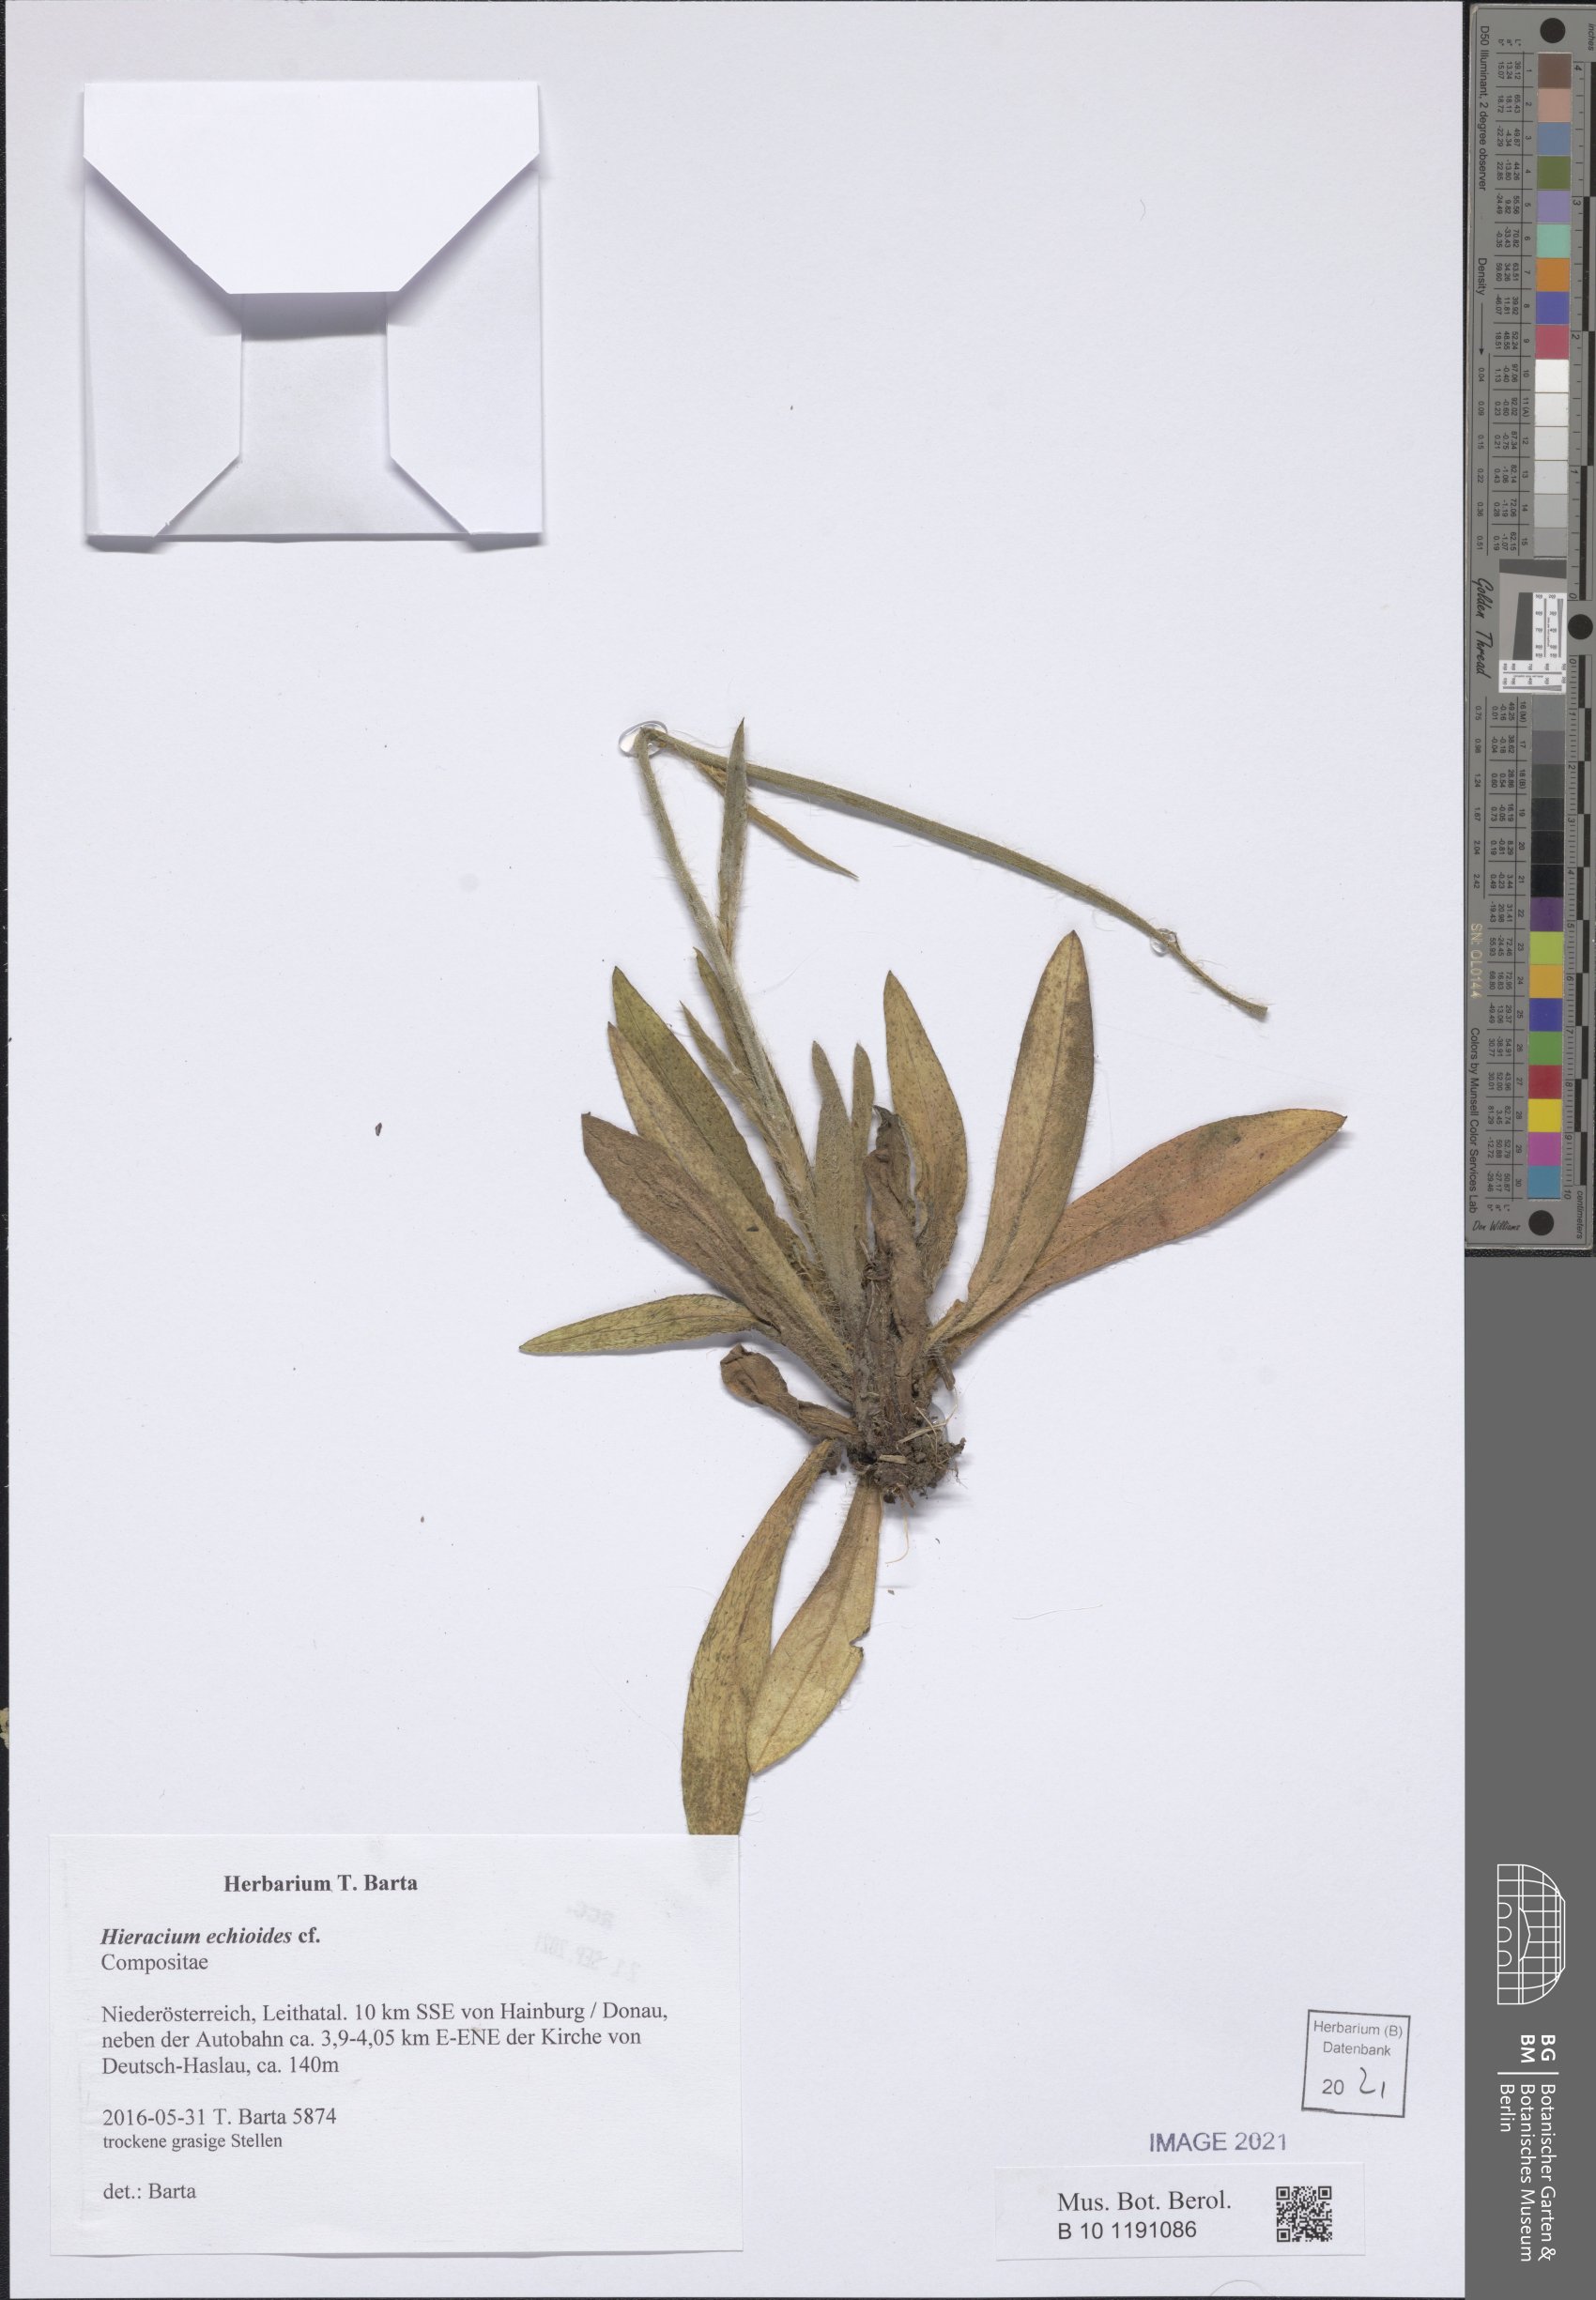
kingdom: Plantae
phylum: Tracheophyta
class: Magnoliopsida
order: Asterales
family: Asteraceae
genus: Pilosella
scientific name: Pilosella echioides
